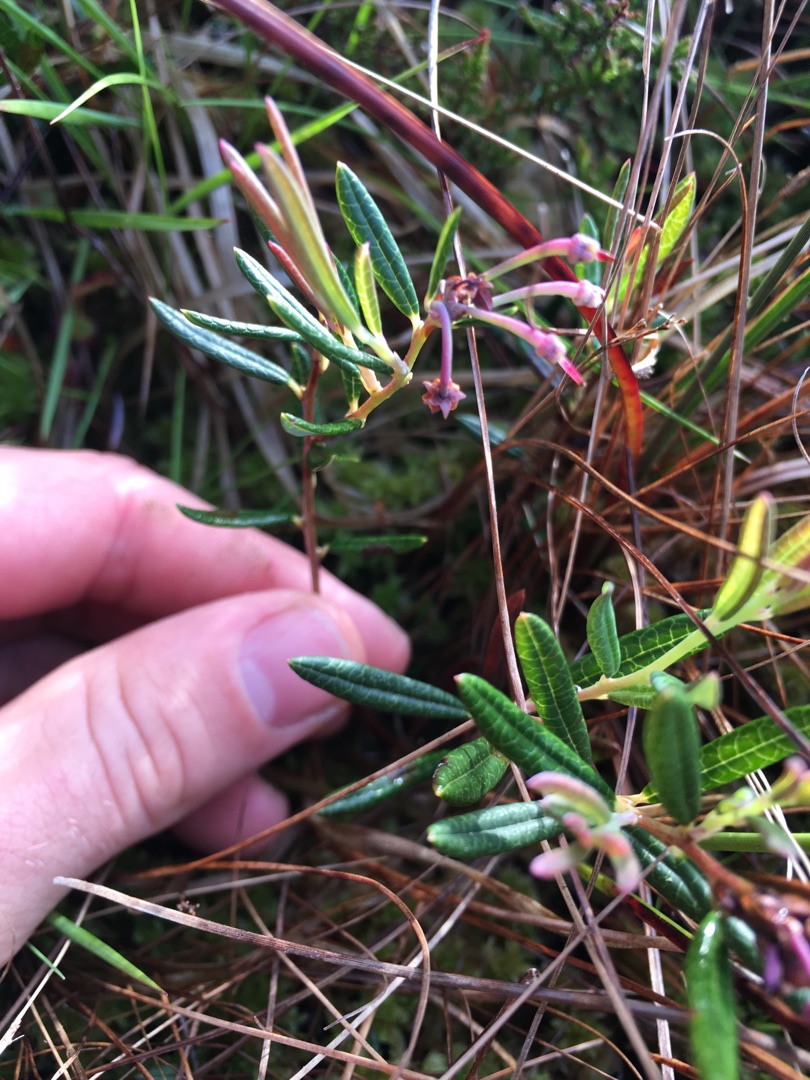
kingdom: Plantae
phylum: Tracheophyta
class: Magnoliopsida
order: Ericales
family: Ericaceae
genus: Andromeda
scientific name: Andromeda polifolia
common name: Rosmarinlyng
